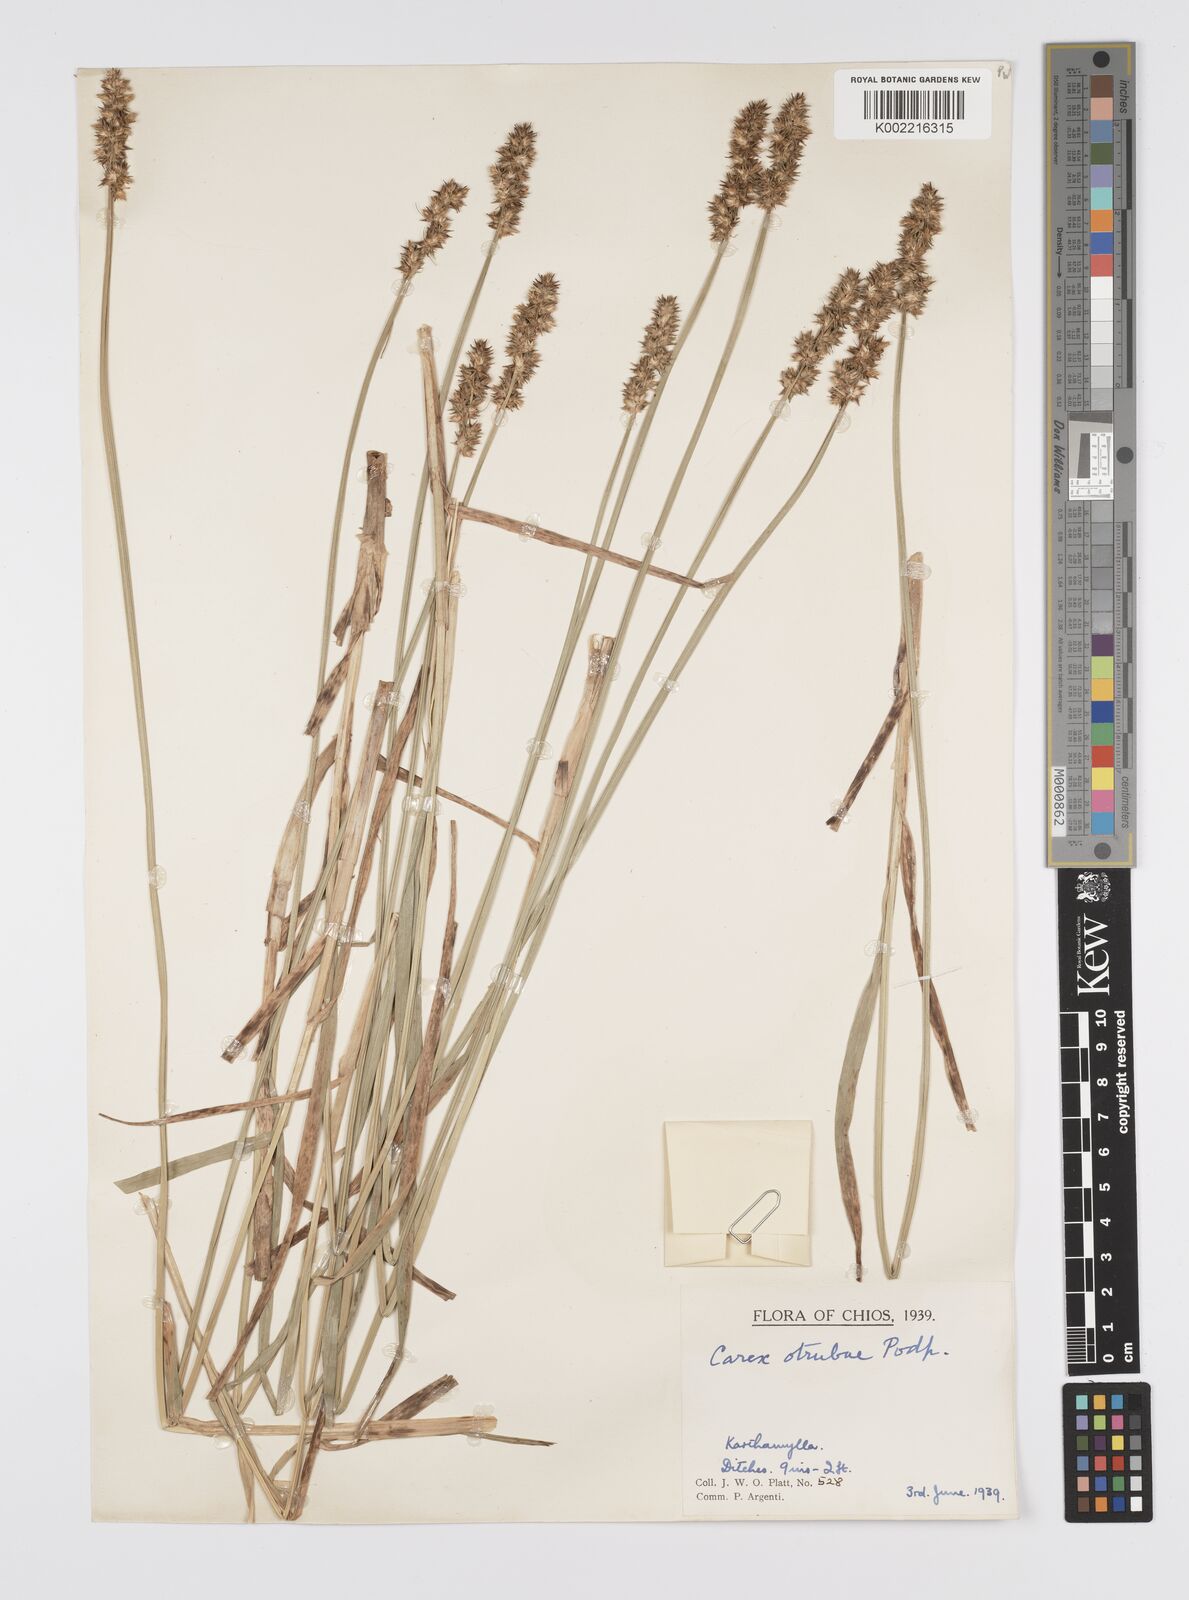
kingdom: Plantae
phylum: Tracheophyta
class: Liliopsida
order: Poales
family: Cyperaceae
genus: Carex
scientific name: Carex otrubae
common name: False fox-sedge
